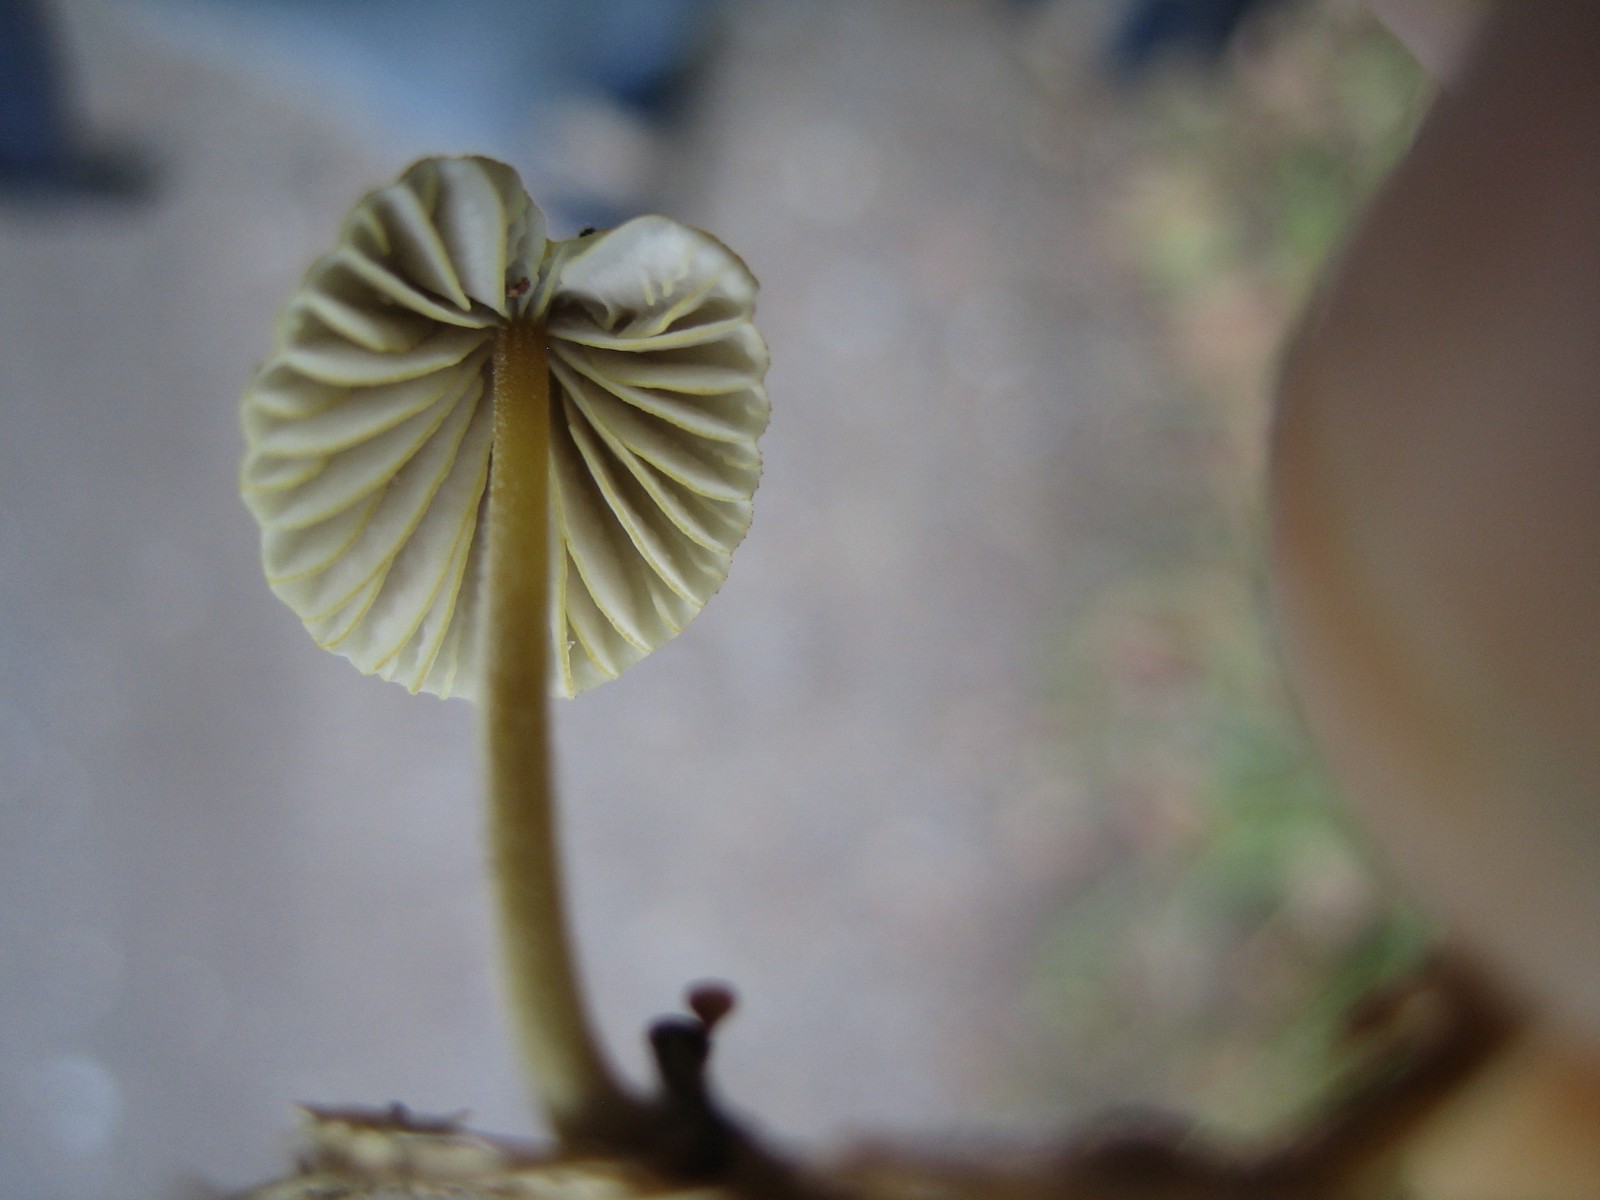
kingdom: Fungi
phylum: Basidiomycota
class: Agaricomycetes
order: Agaricales
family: Mycenaceae
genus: Mycena
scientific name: Mycena citrinomarginata
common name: gulægget huesvamp
